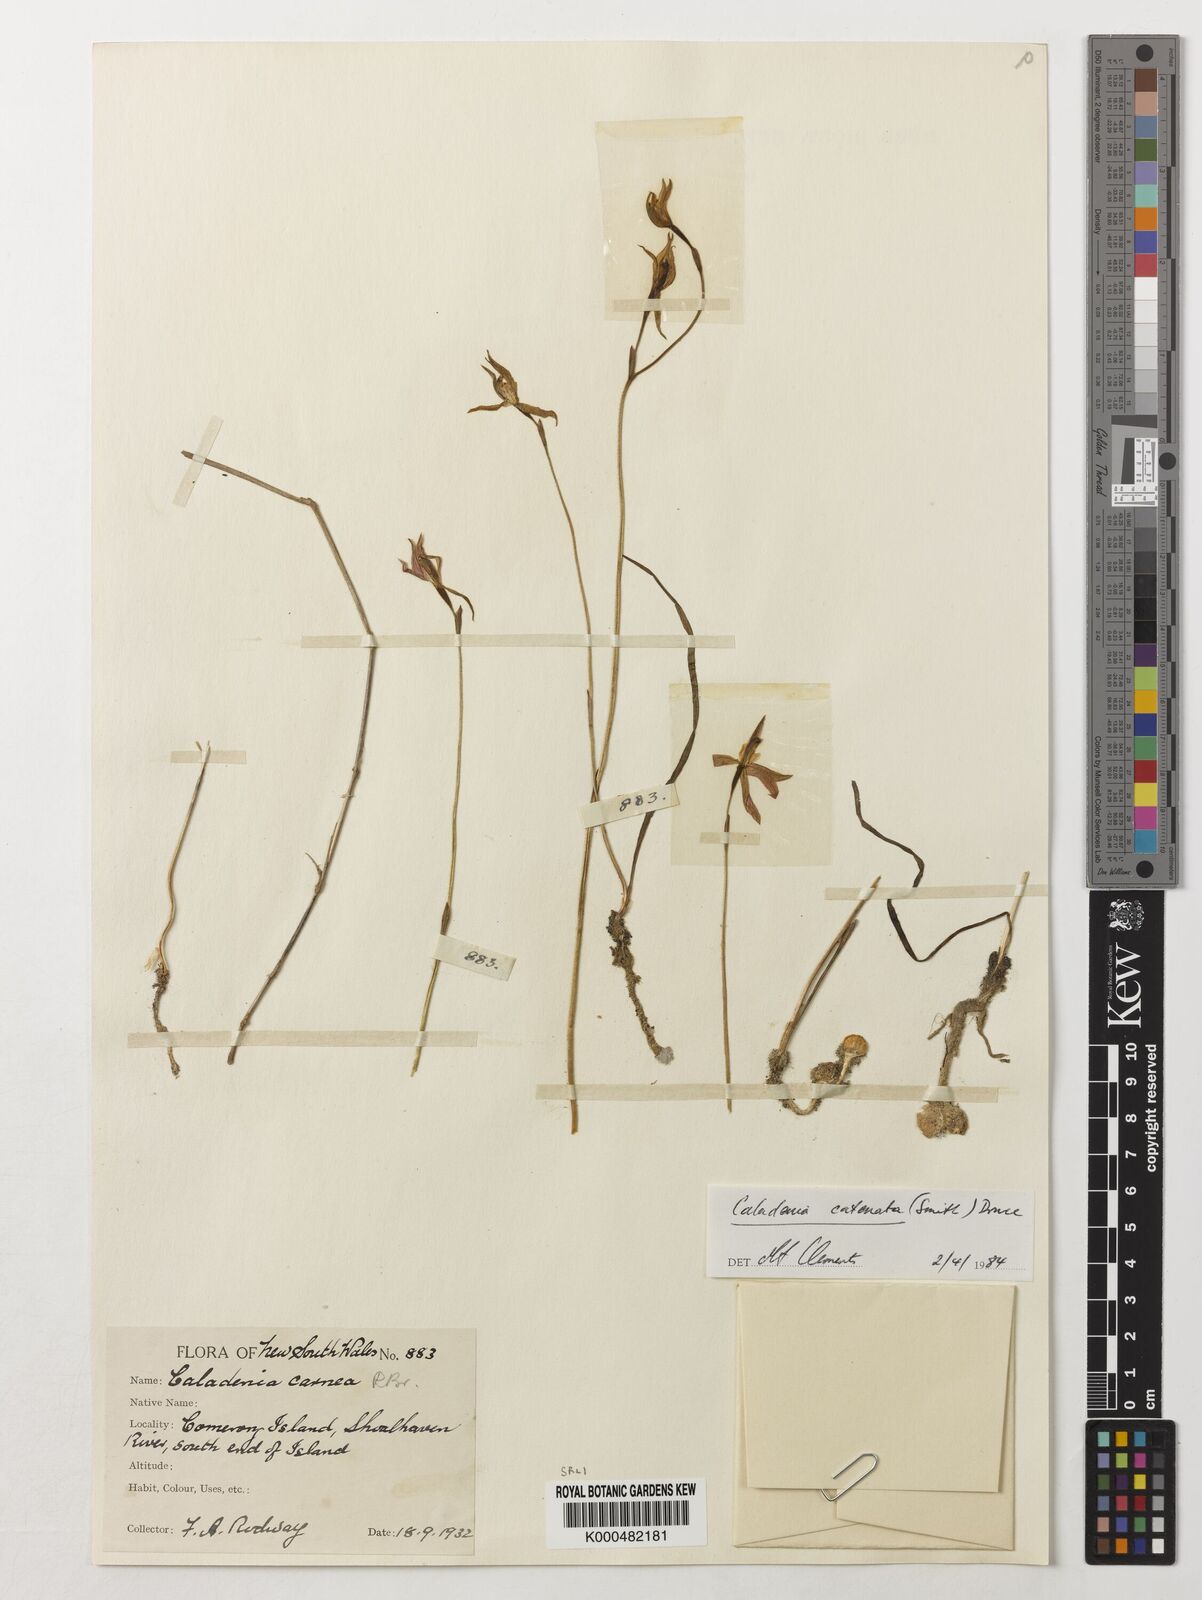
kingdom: Plantae
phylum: Tracheophyta
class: Liliopsida
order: Asparagales
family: Orchidaceae
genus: Caladenia
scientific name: Caladenia
